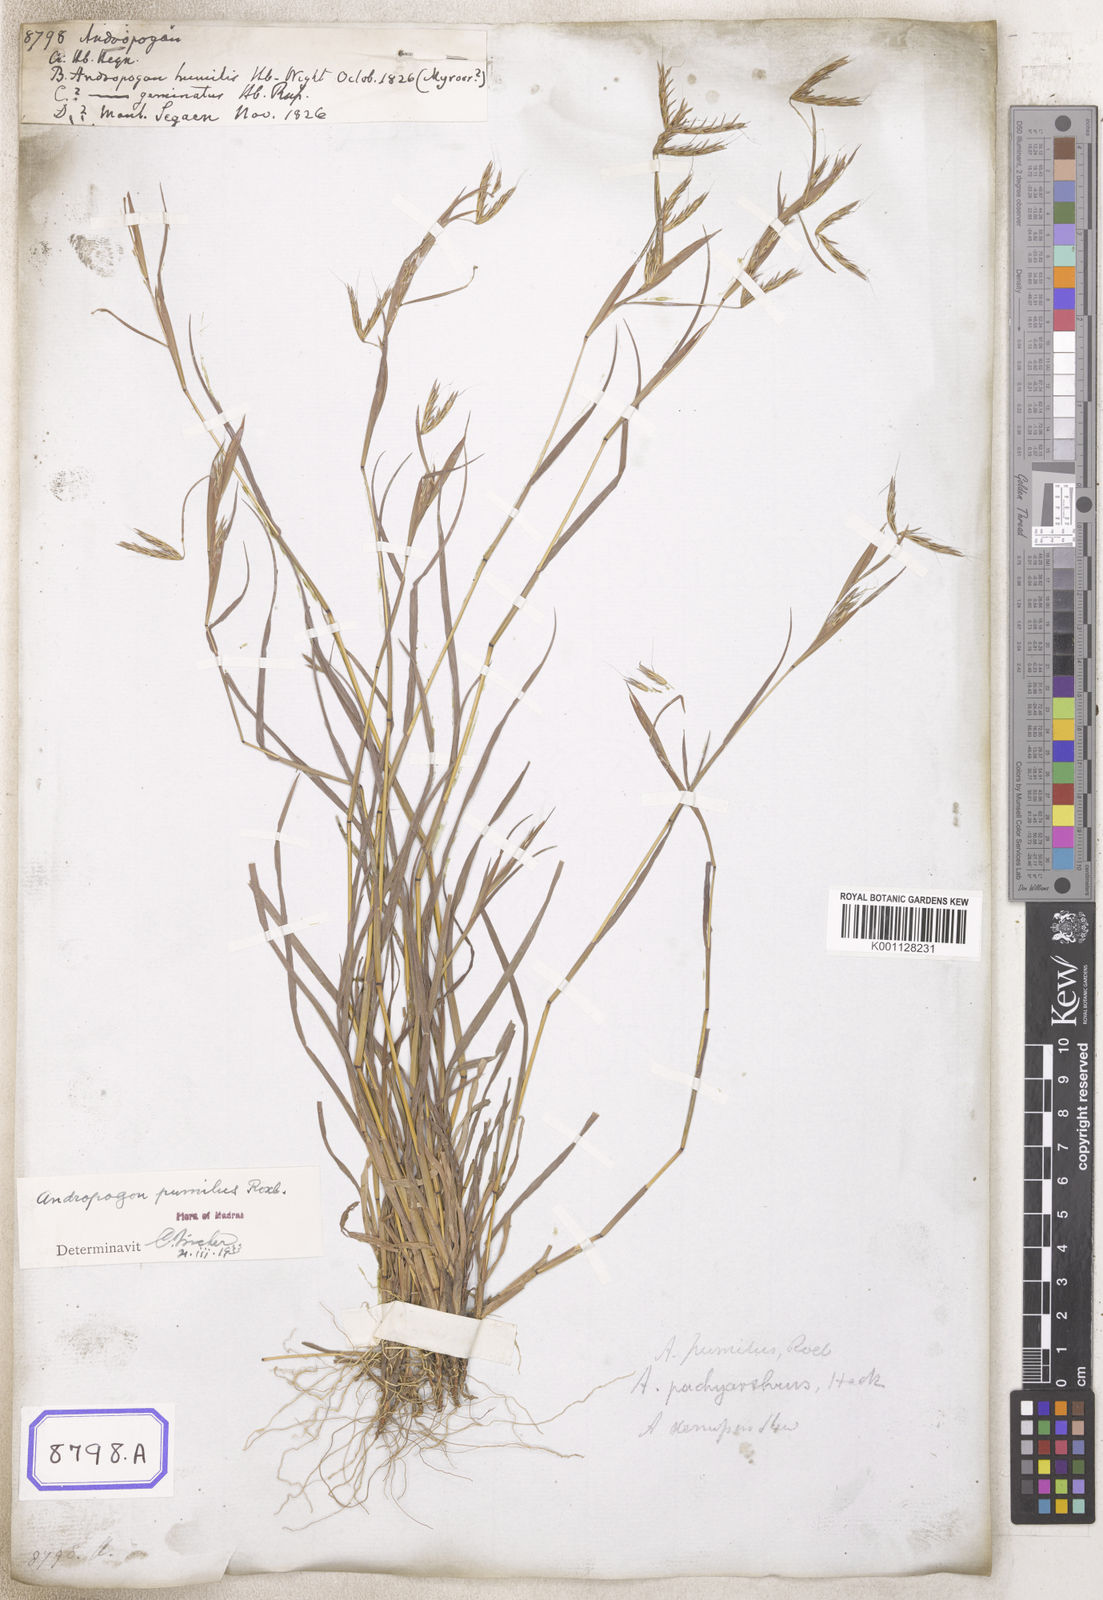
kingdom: Plantae
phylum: Tracheophyta
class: Liliopsida
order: Poales
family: Poaceae
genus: Andropogon
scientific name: Andropogon
